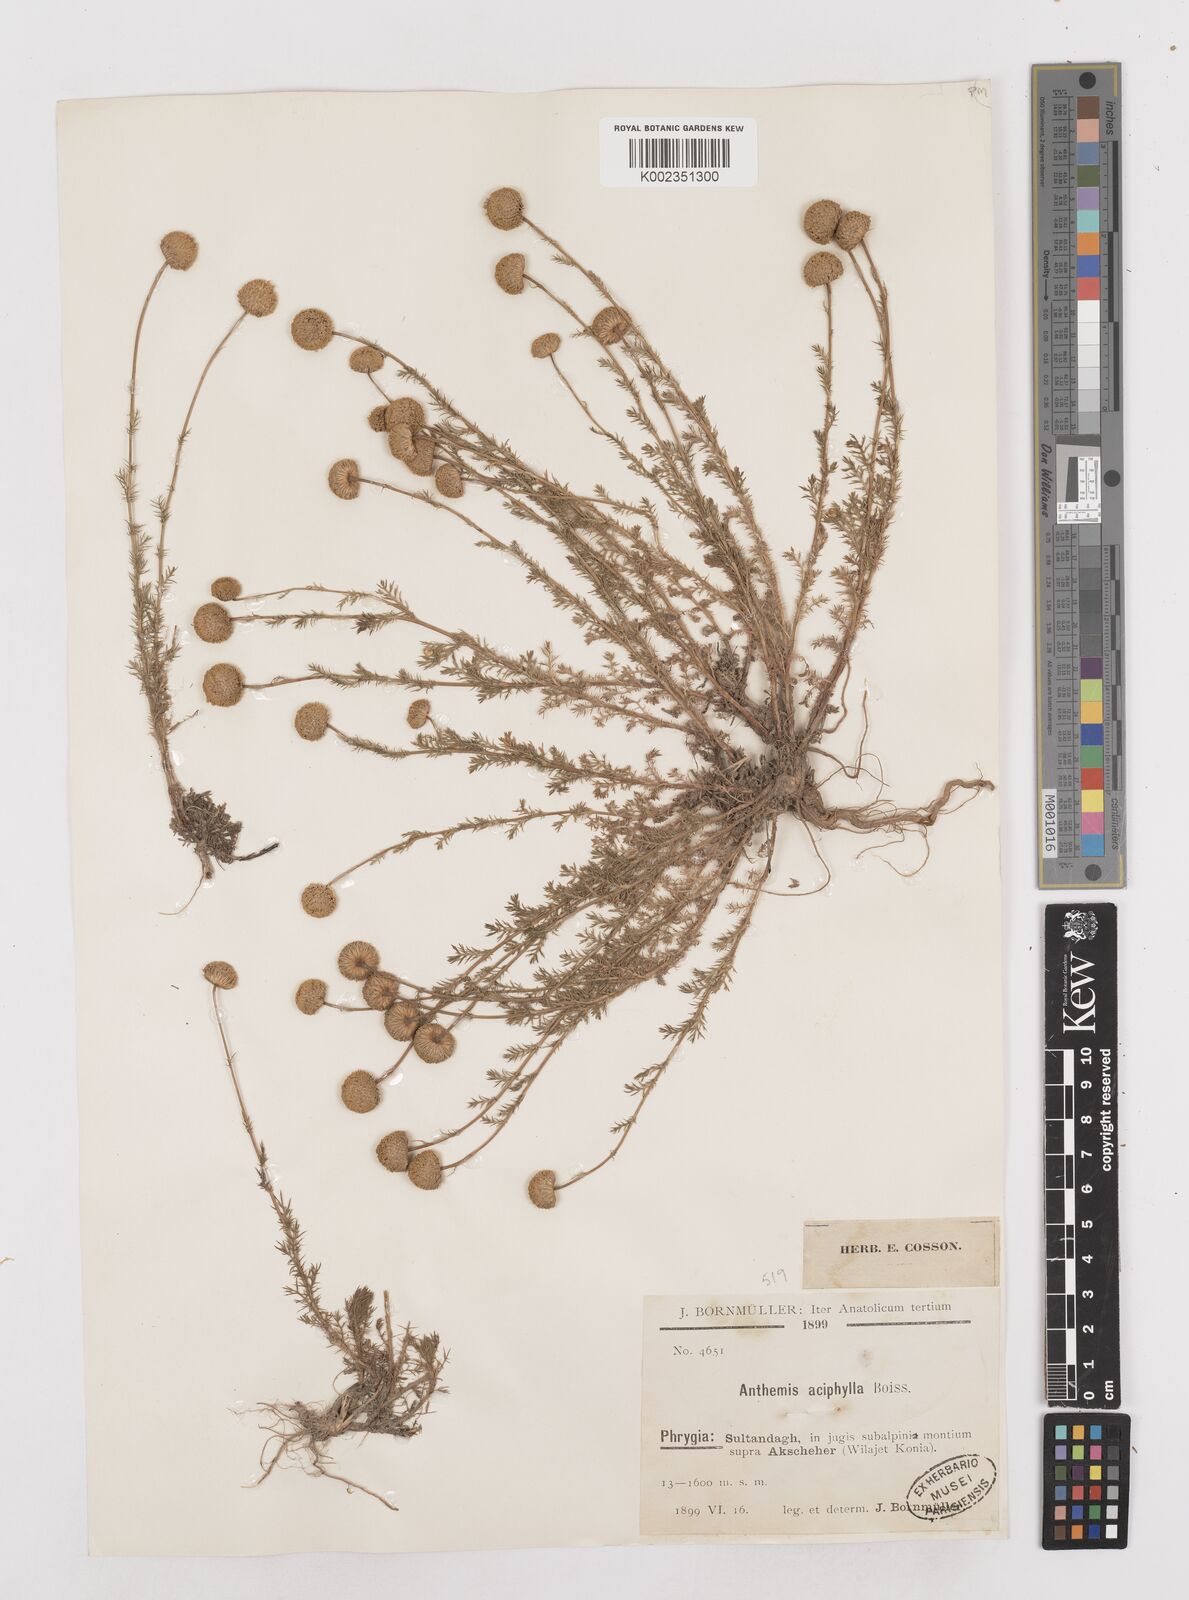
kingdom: Plantae
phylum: Tracheophyta
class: Magnoliopsida
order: Asterales
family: Asteraceae
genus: Anthemis
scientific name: Anthemis aciphylla
